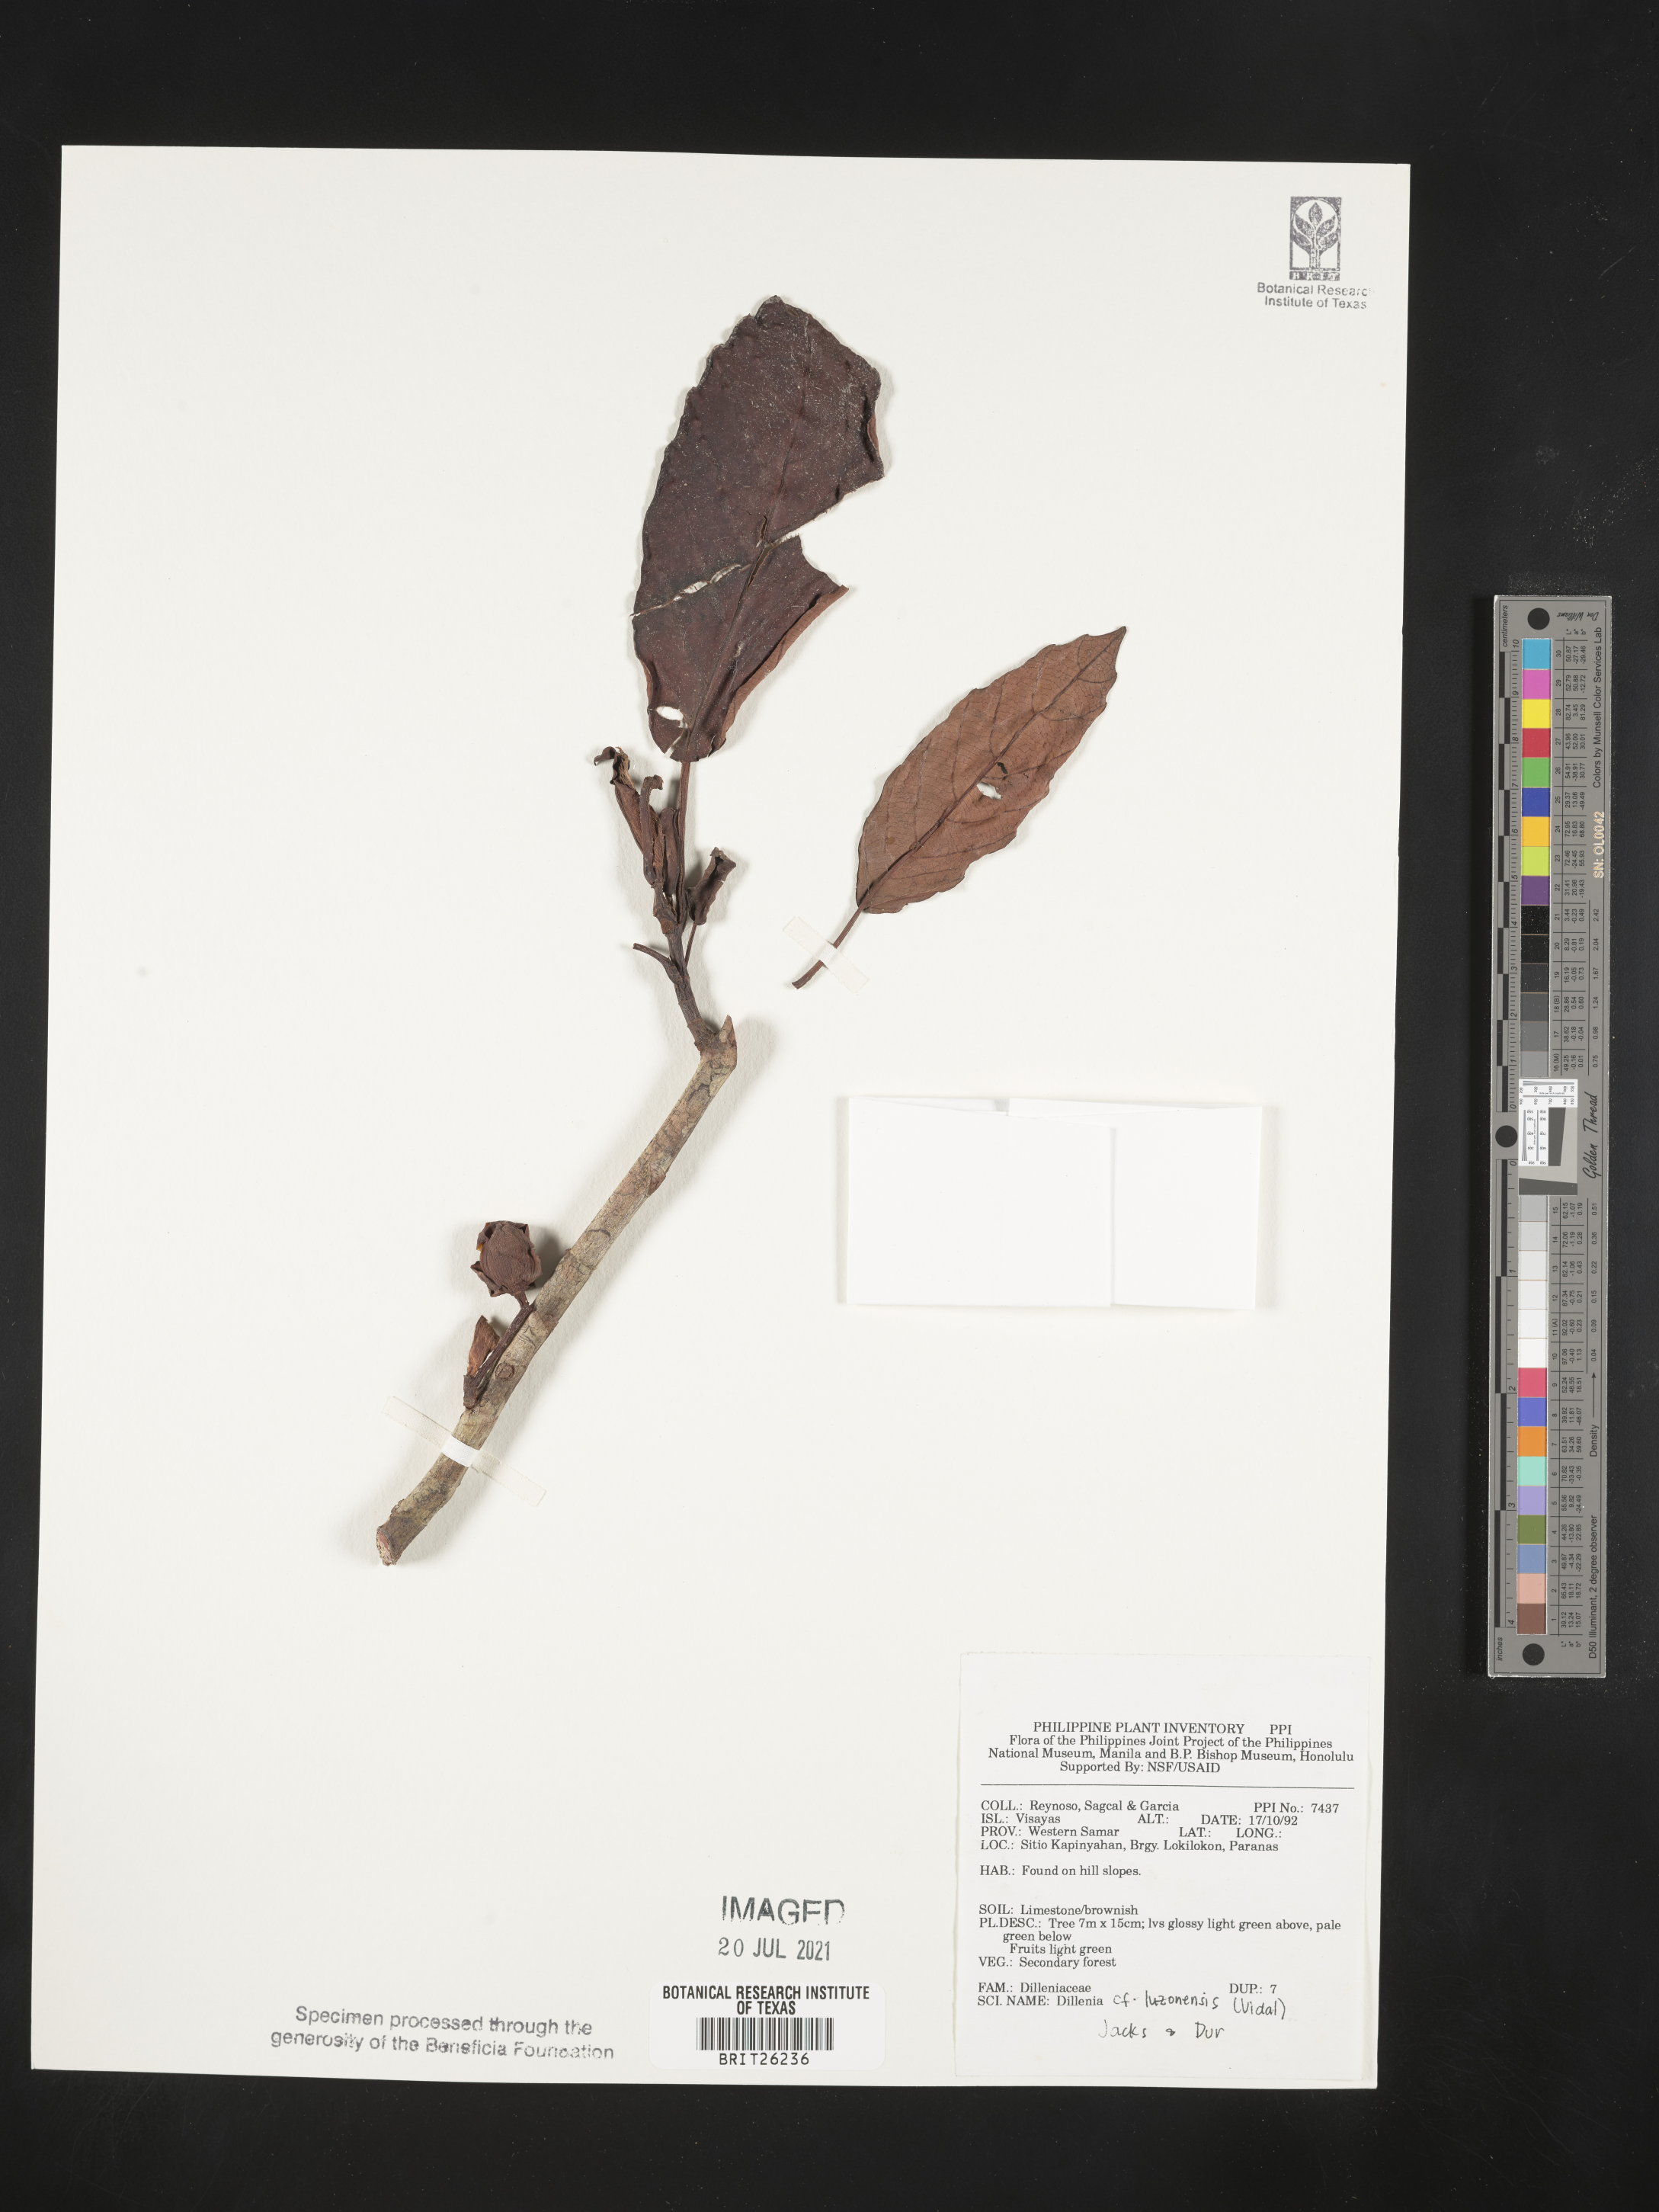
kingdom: Plantae
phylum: Tracheophyta
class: Magnoliopsida
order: Dilleniales
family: Dilleniaceae
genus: Dillenia
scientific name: Dillenia luzoniensis
